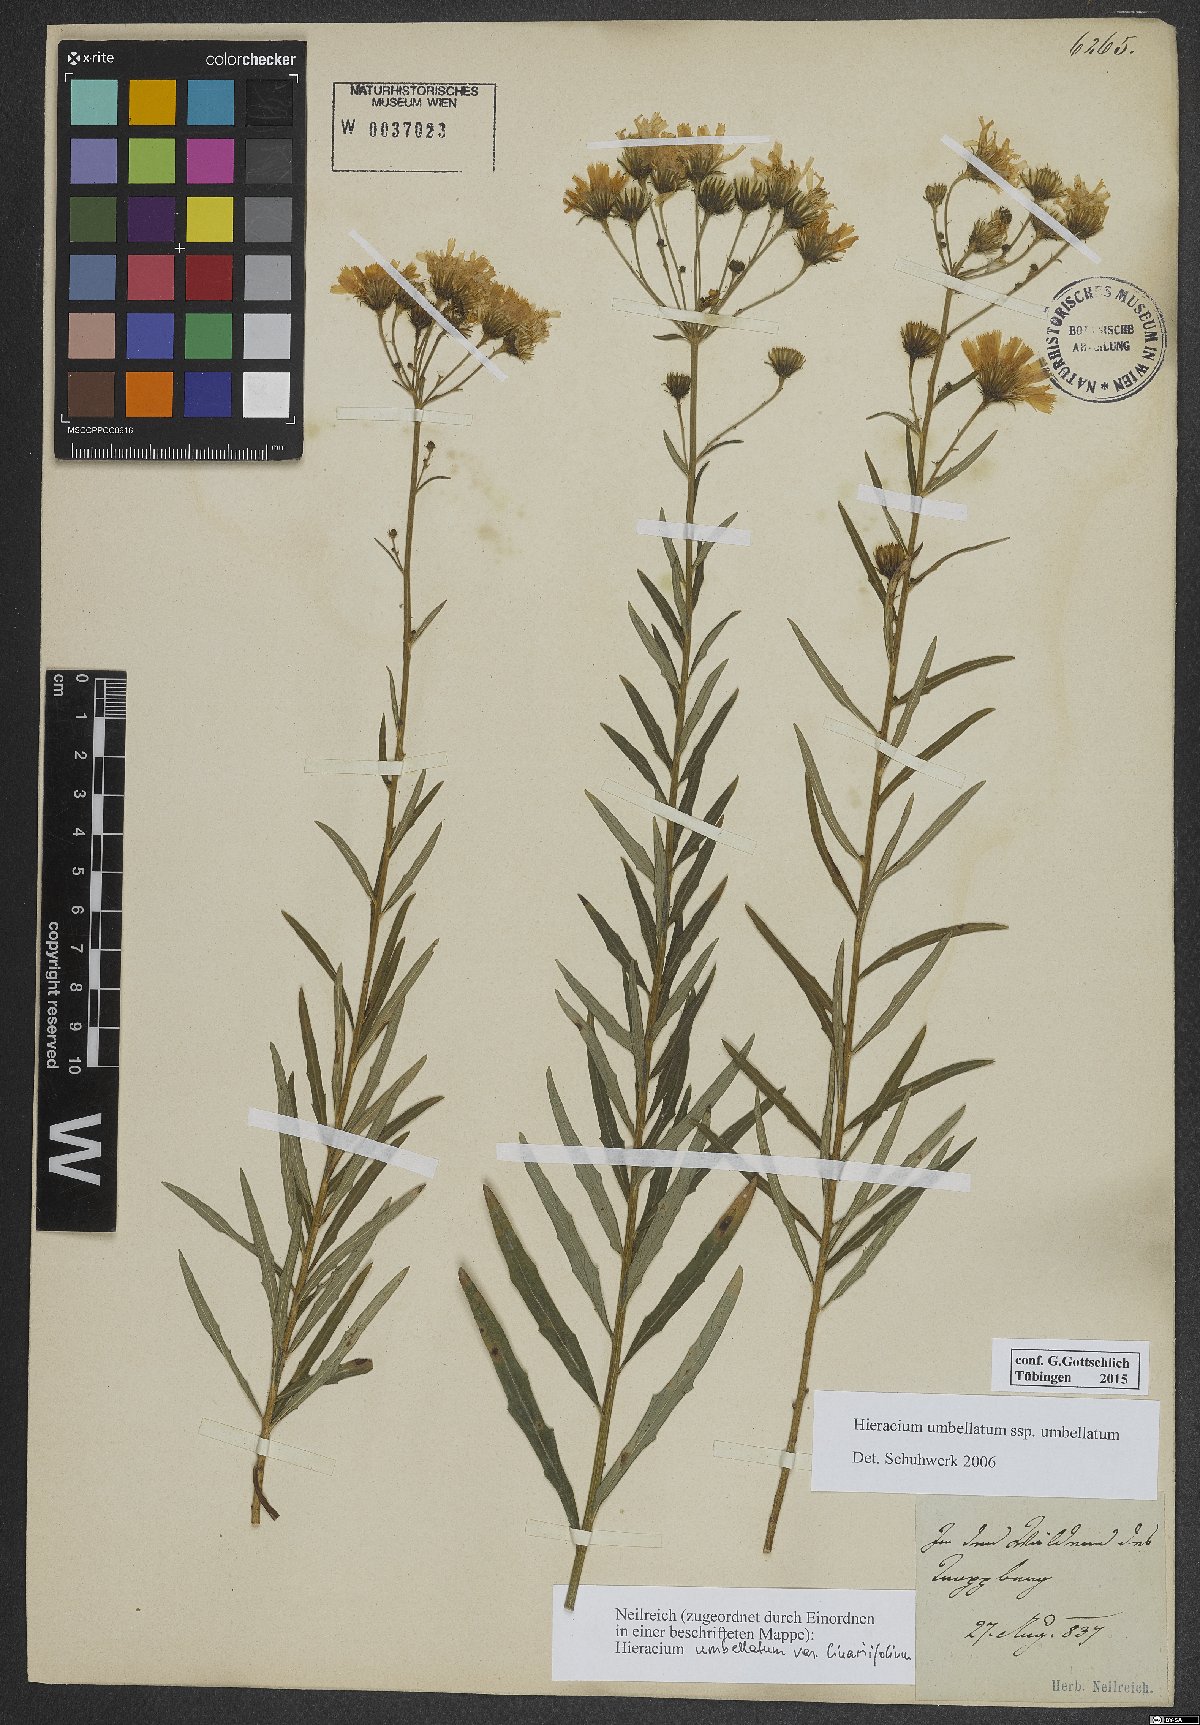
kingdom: Plantae
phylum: Tracheophyta
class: Magnoliopsida
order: Asterales
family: Asteraceae
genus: Hieracium
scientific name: Hieracium umbellatum
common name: Northern hawkweed
